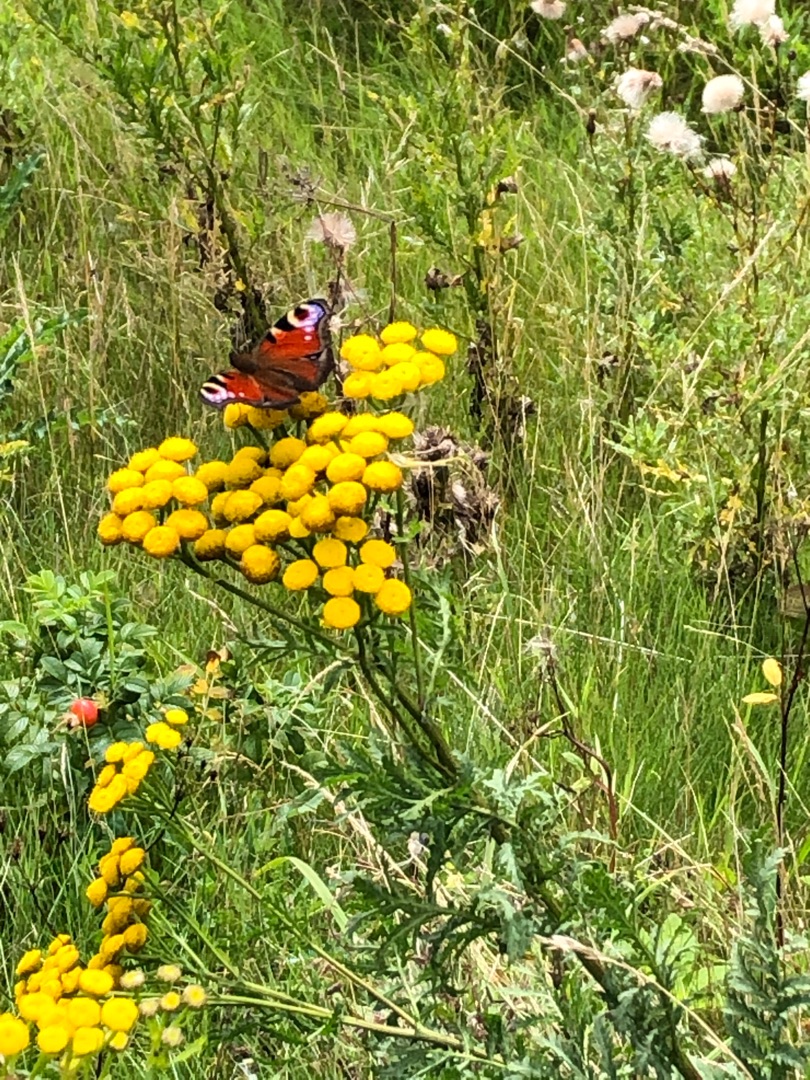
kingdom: Animalia
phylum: Arthropoda
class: Insecta
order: Lepidoptera
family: Nymphalidae
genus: Aglais
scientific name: Aglais io
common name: Dagpåfugleøje
